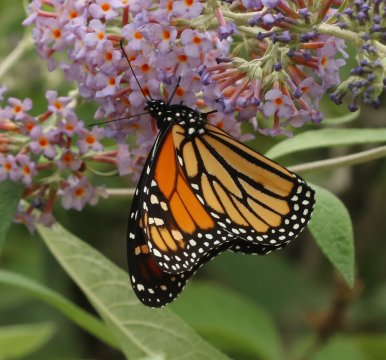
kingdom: Animalia
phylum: Arthropoda
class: Insecta
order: Lepidoptera
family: Nymphalidae
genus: Danaus
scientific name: Danaus plexippus
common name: Monarch
